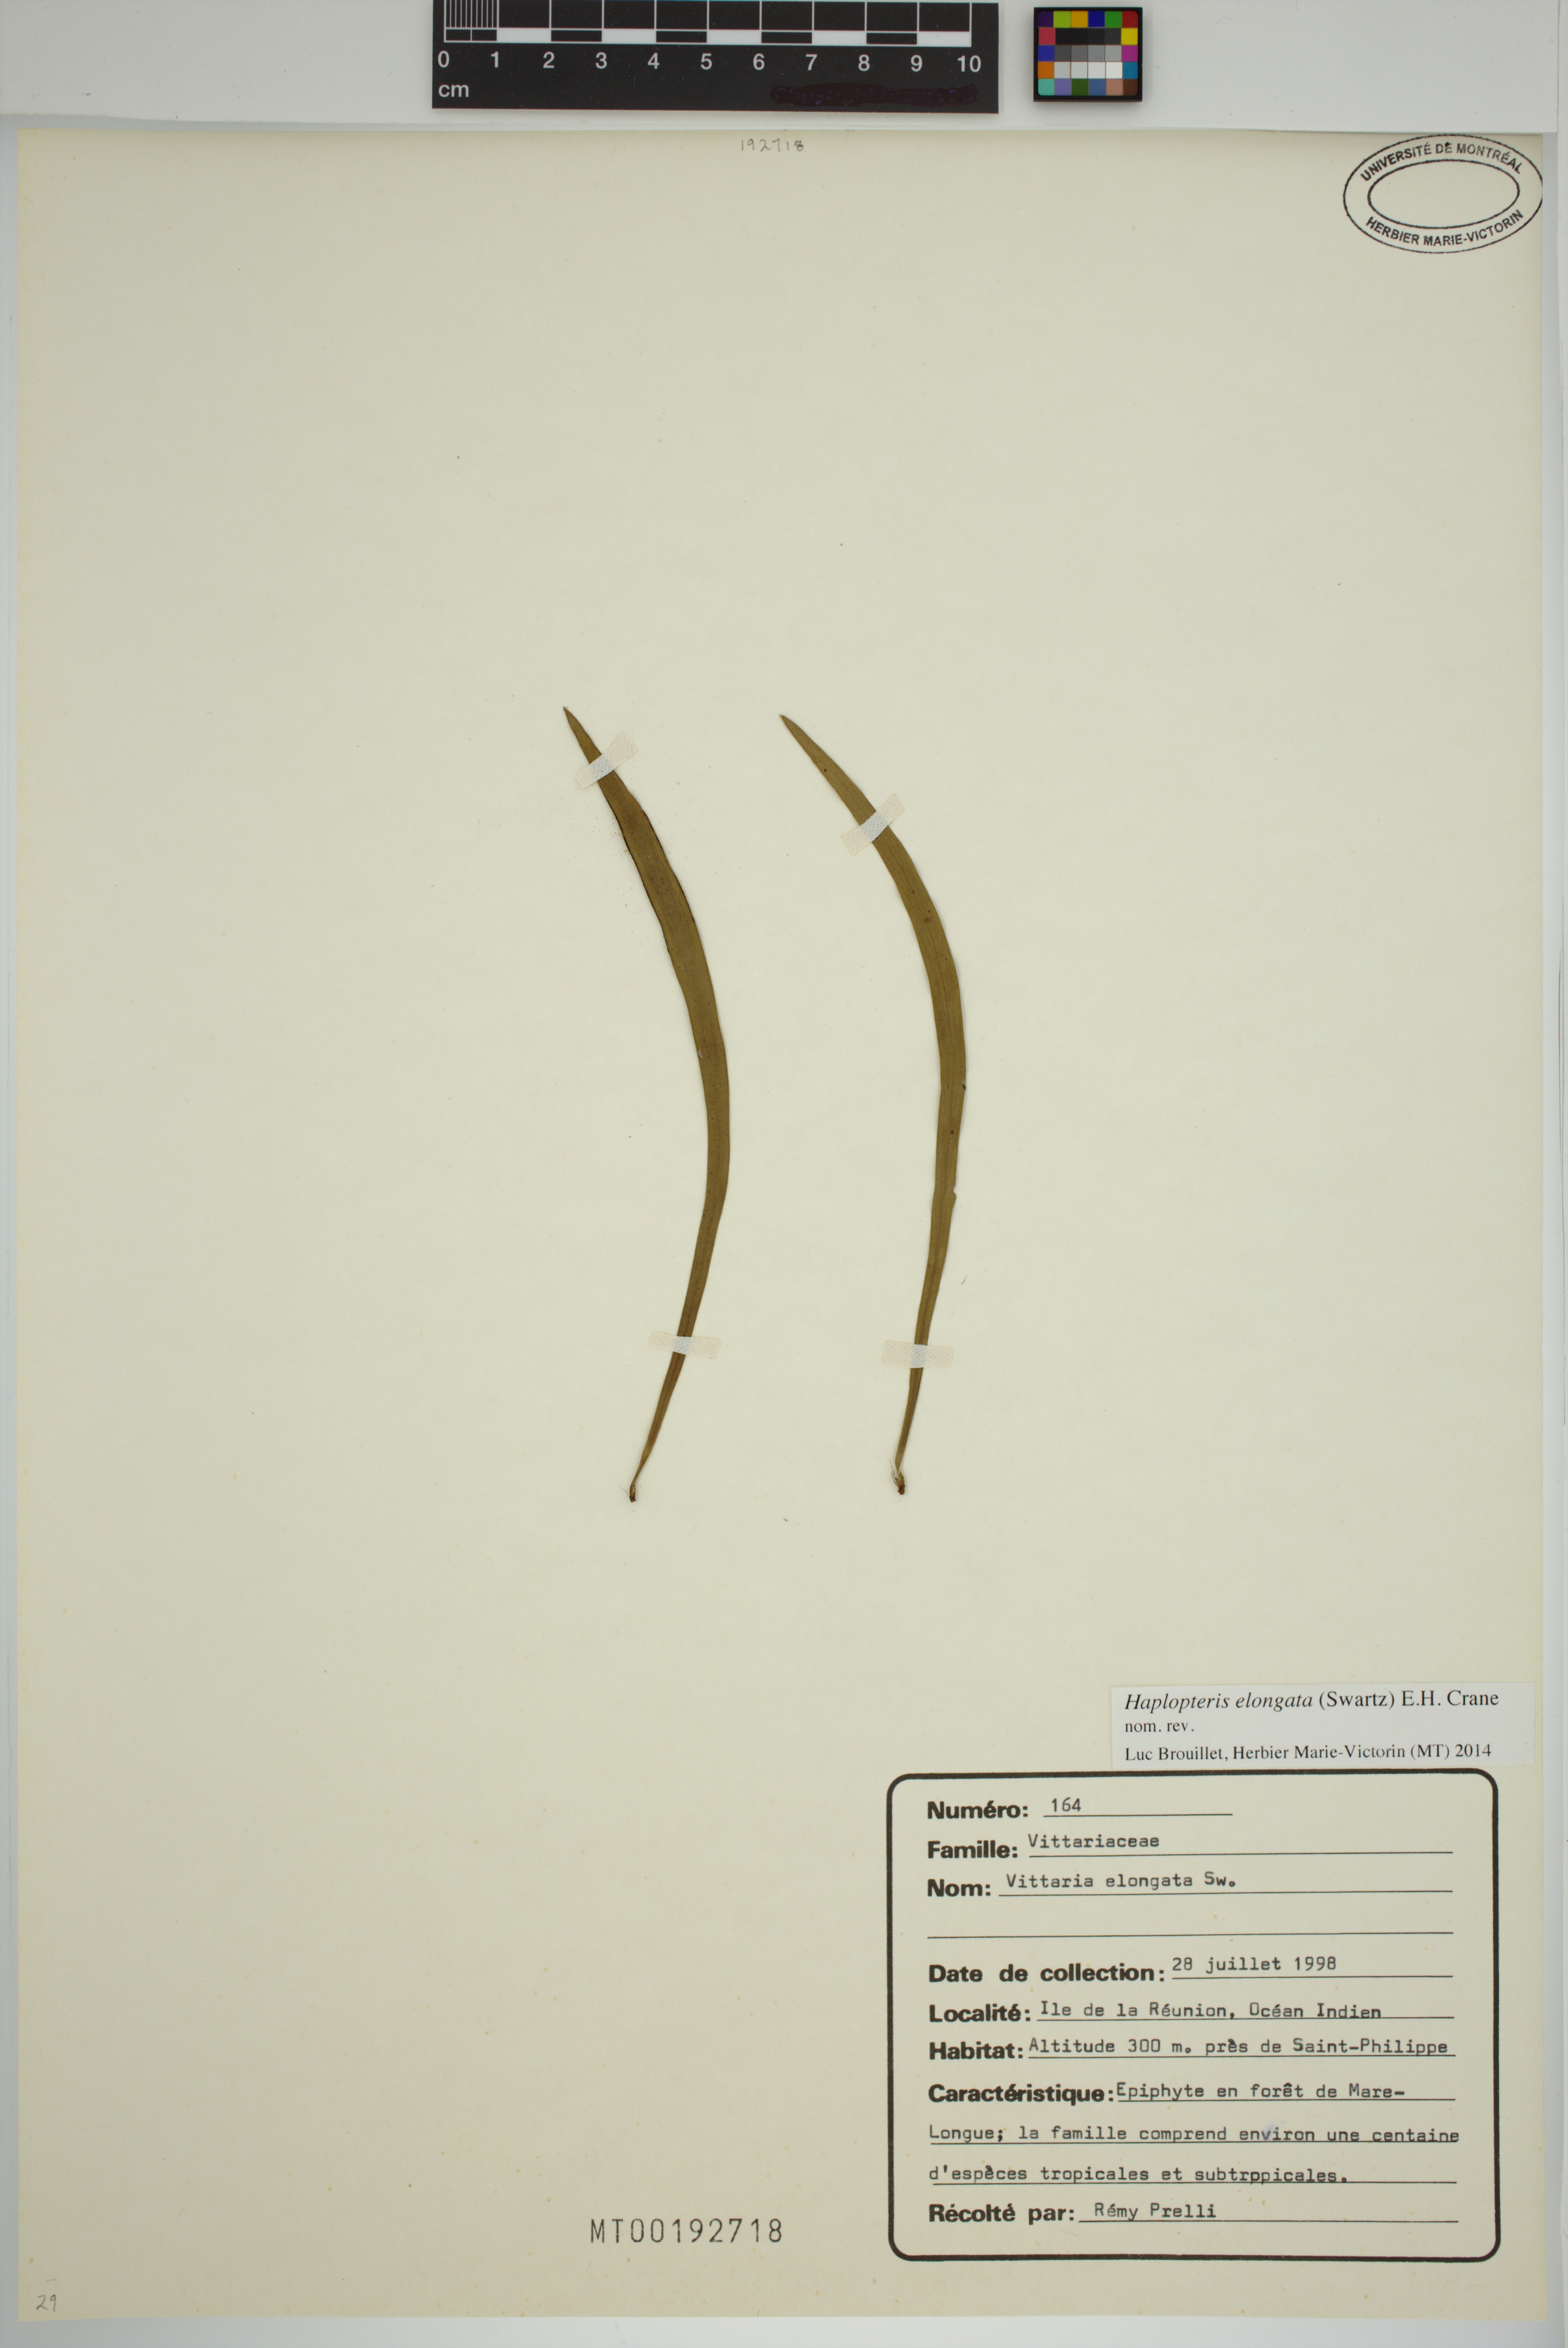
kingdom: Plantae
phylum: Tracheophyta
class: Polypodiopsida
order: Polypodiales
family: Pteridaceae
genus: Haplopteris
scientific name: Haplopteris elongata
